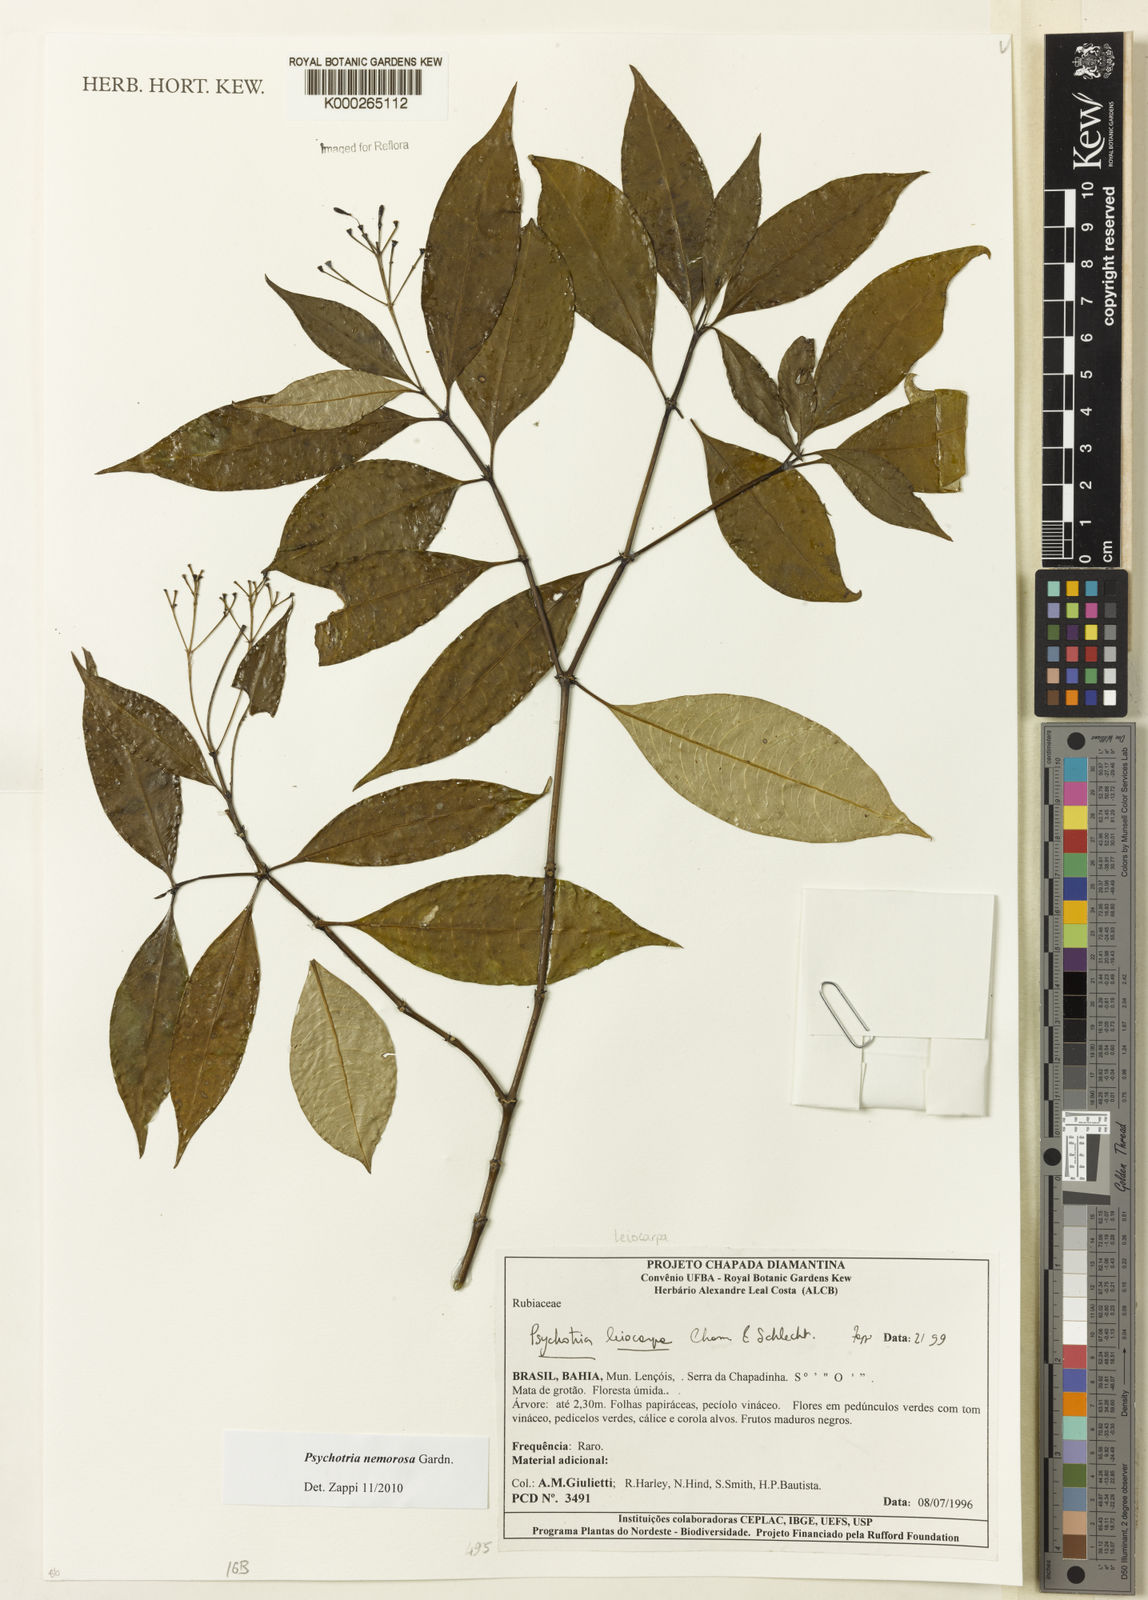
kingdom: Plantae
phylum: Tracheophyta
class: Magnoliopsida
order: Gentianales
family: Rubiaceae
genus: Psychotria
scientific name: Psychotria nemorosa
